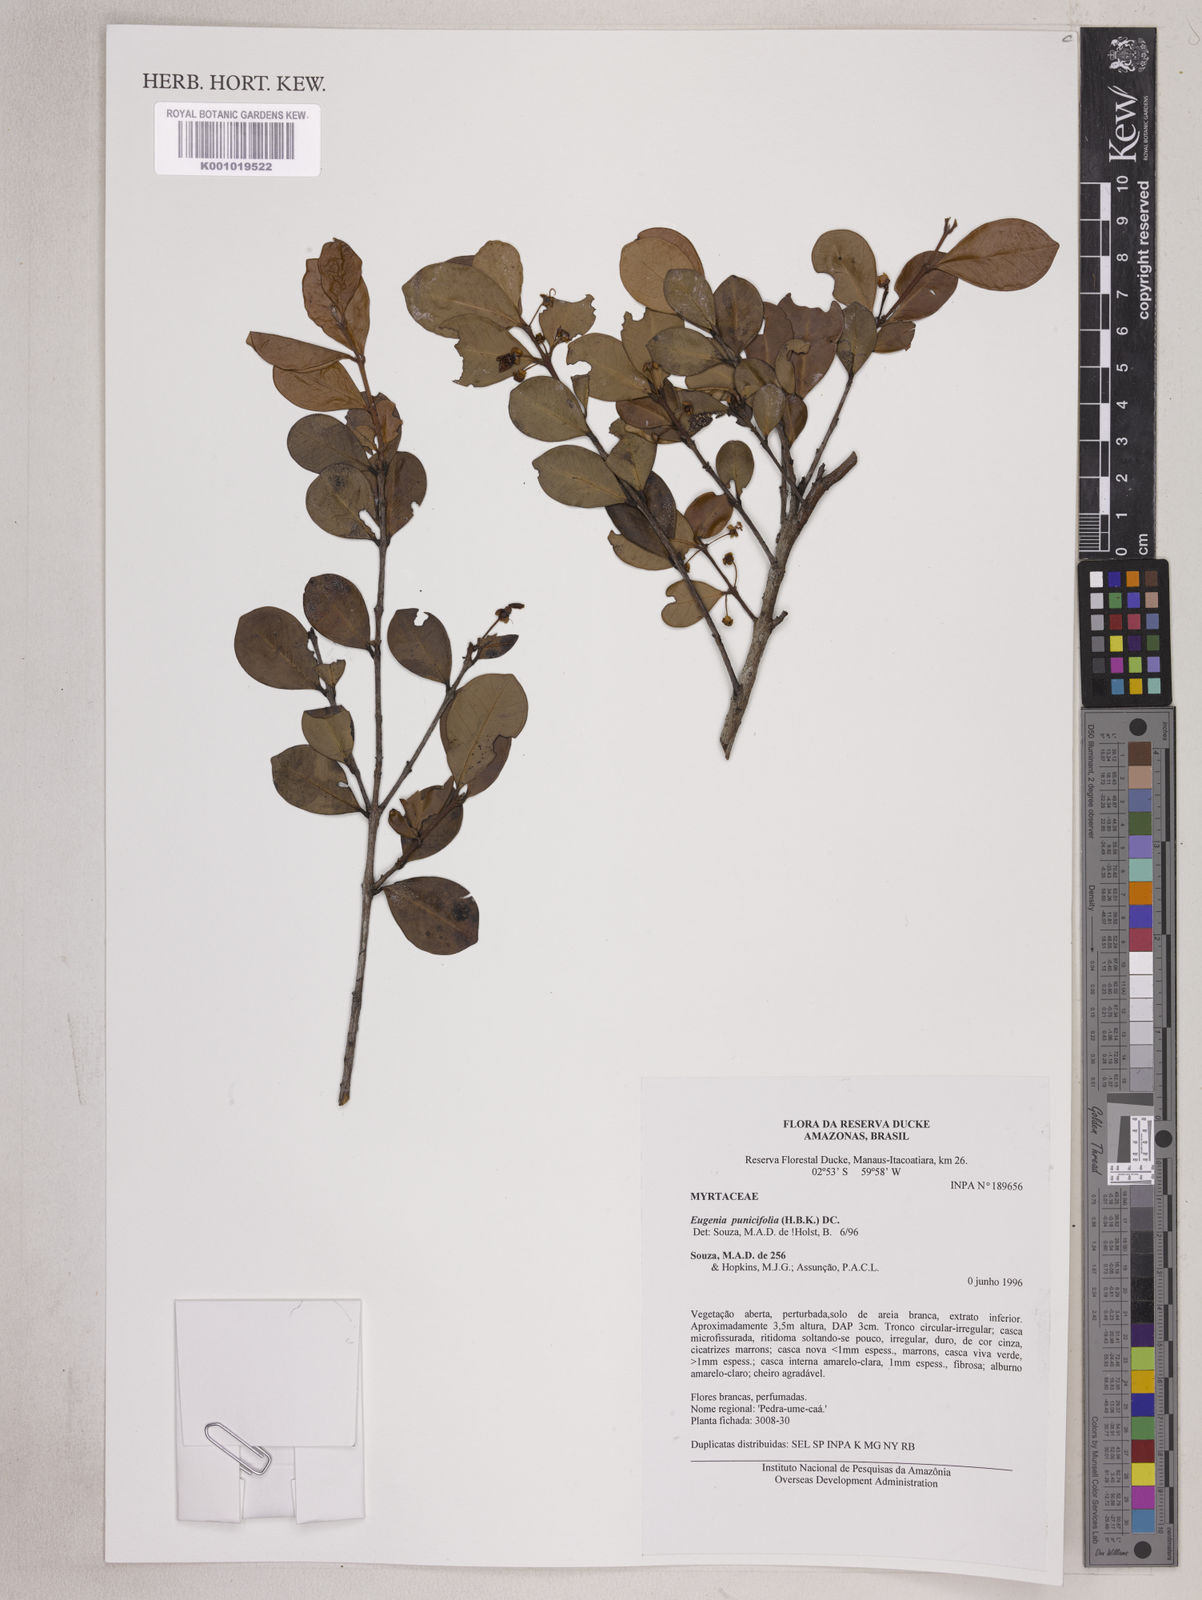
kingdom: Plantae
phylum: Tracheophyta
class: Magnoliopsida
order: Myrtales
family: Myrtaceae
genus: Eugenia
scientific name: Eugenia punicifolia
